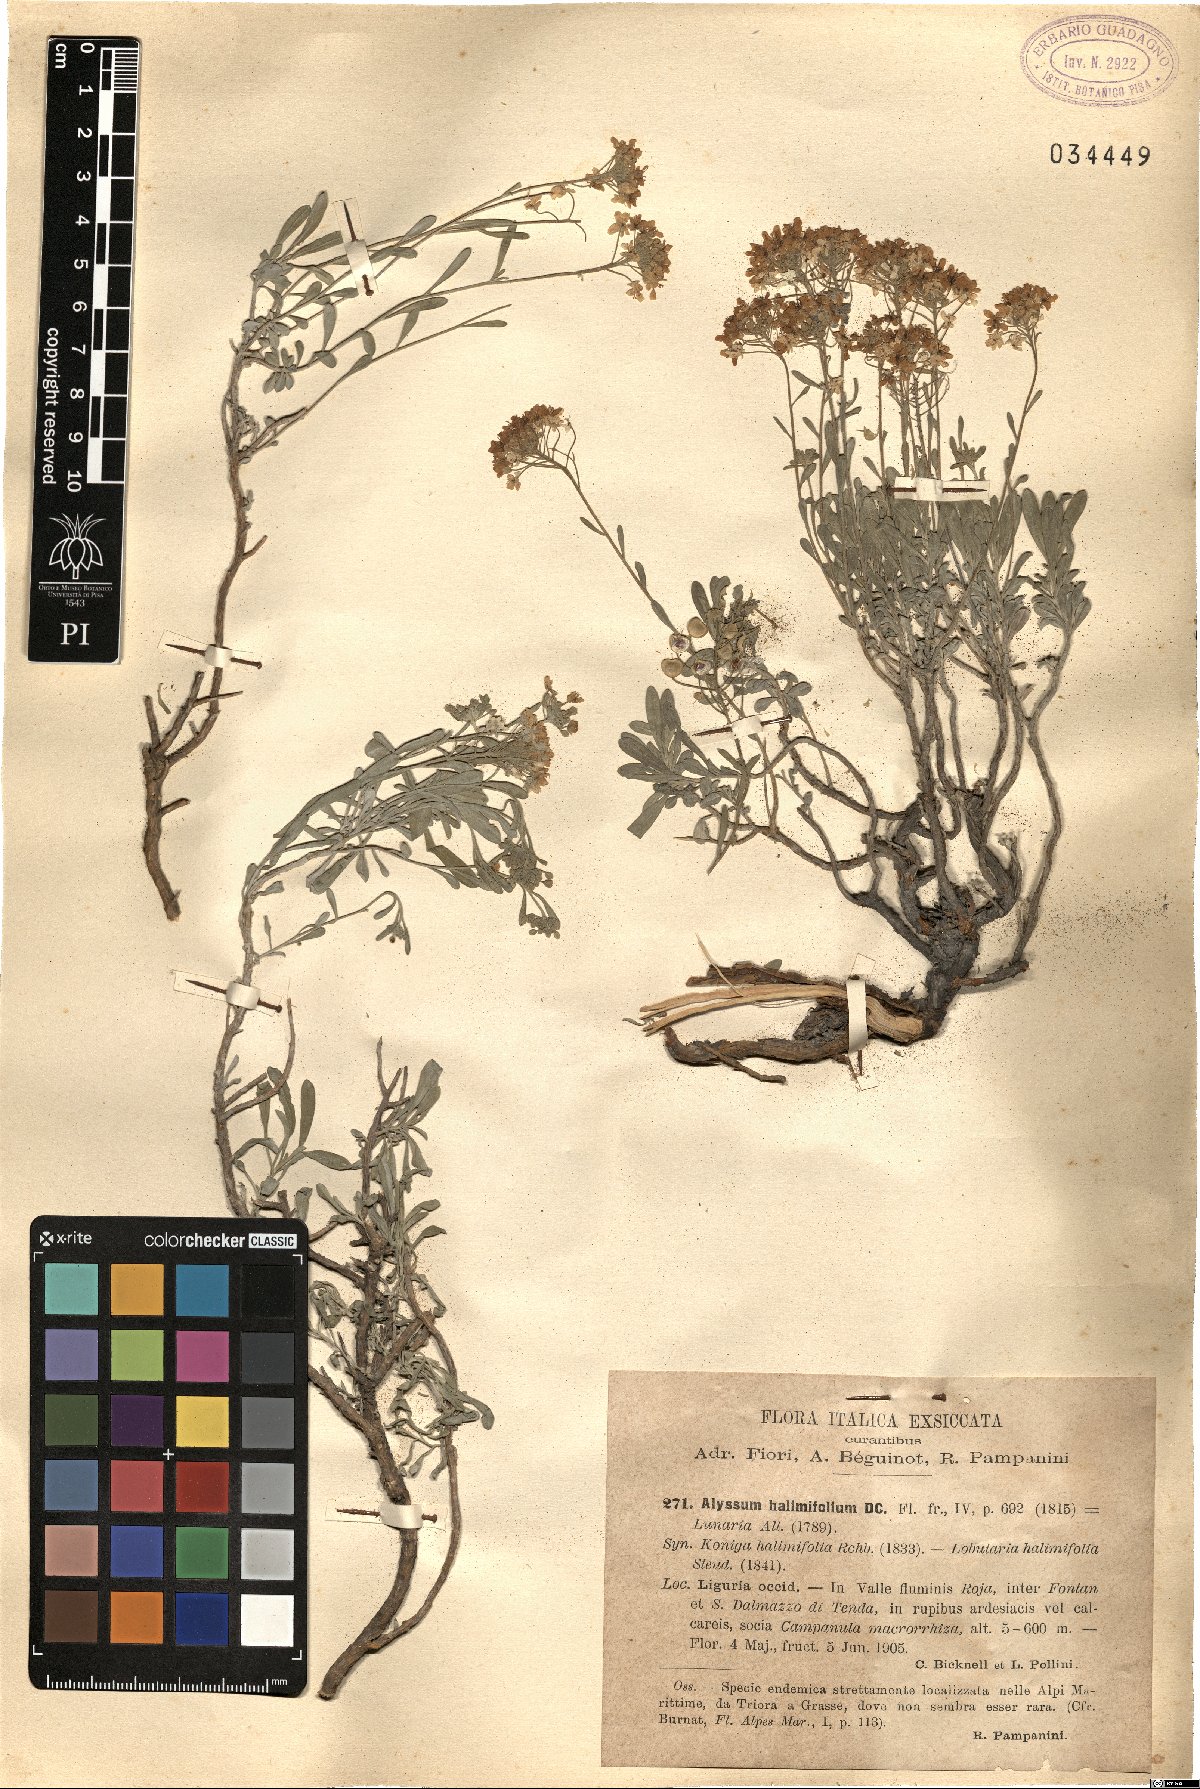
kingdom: Plantae
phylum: Tracheophyta
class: Magnoliopsida
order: Brassicales
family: Brassicaceae
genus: Hormathophylla
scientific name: Hormathophylla ligustica
